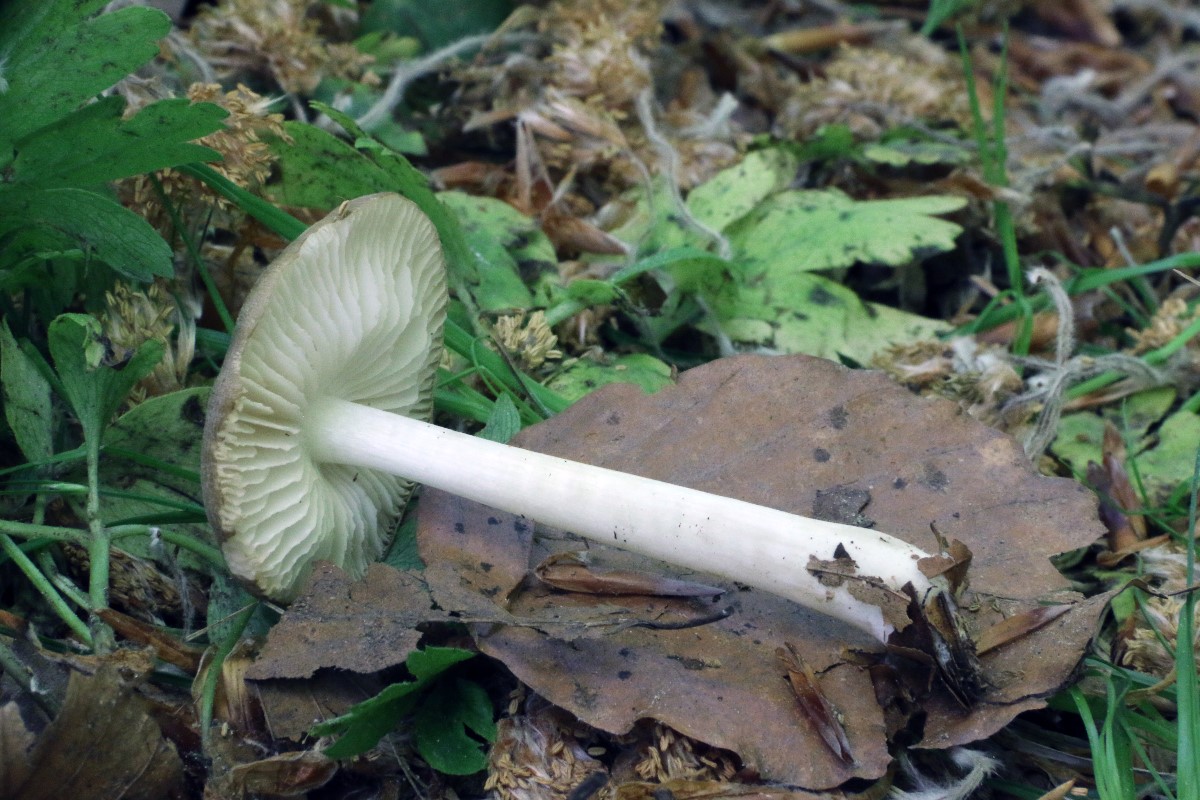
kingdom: Fungi
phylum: Basidiomycota
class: Agaricomycetes
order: Agaricales
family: Porotheleaceae
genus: Hydropodia
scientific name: Hydropodia subalpina
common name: vår-fnugfod
